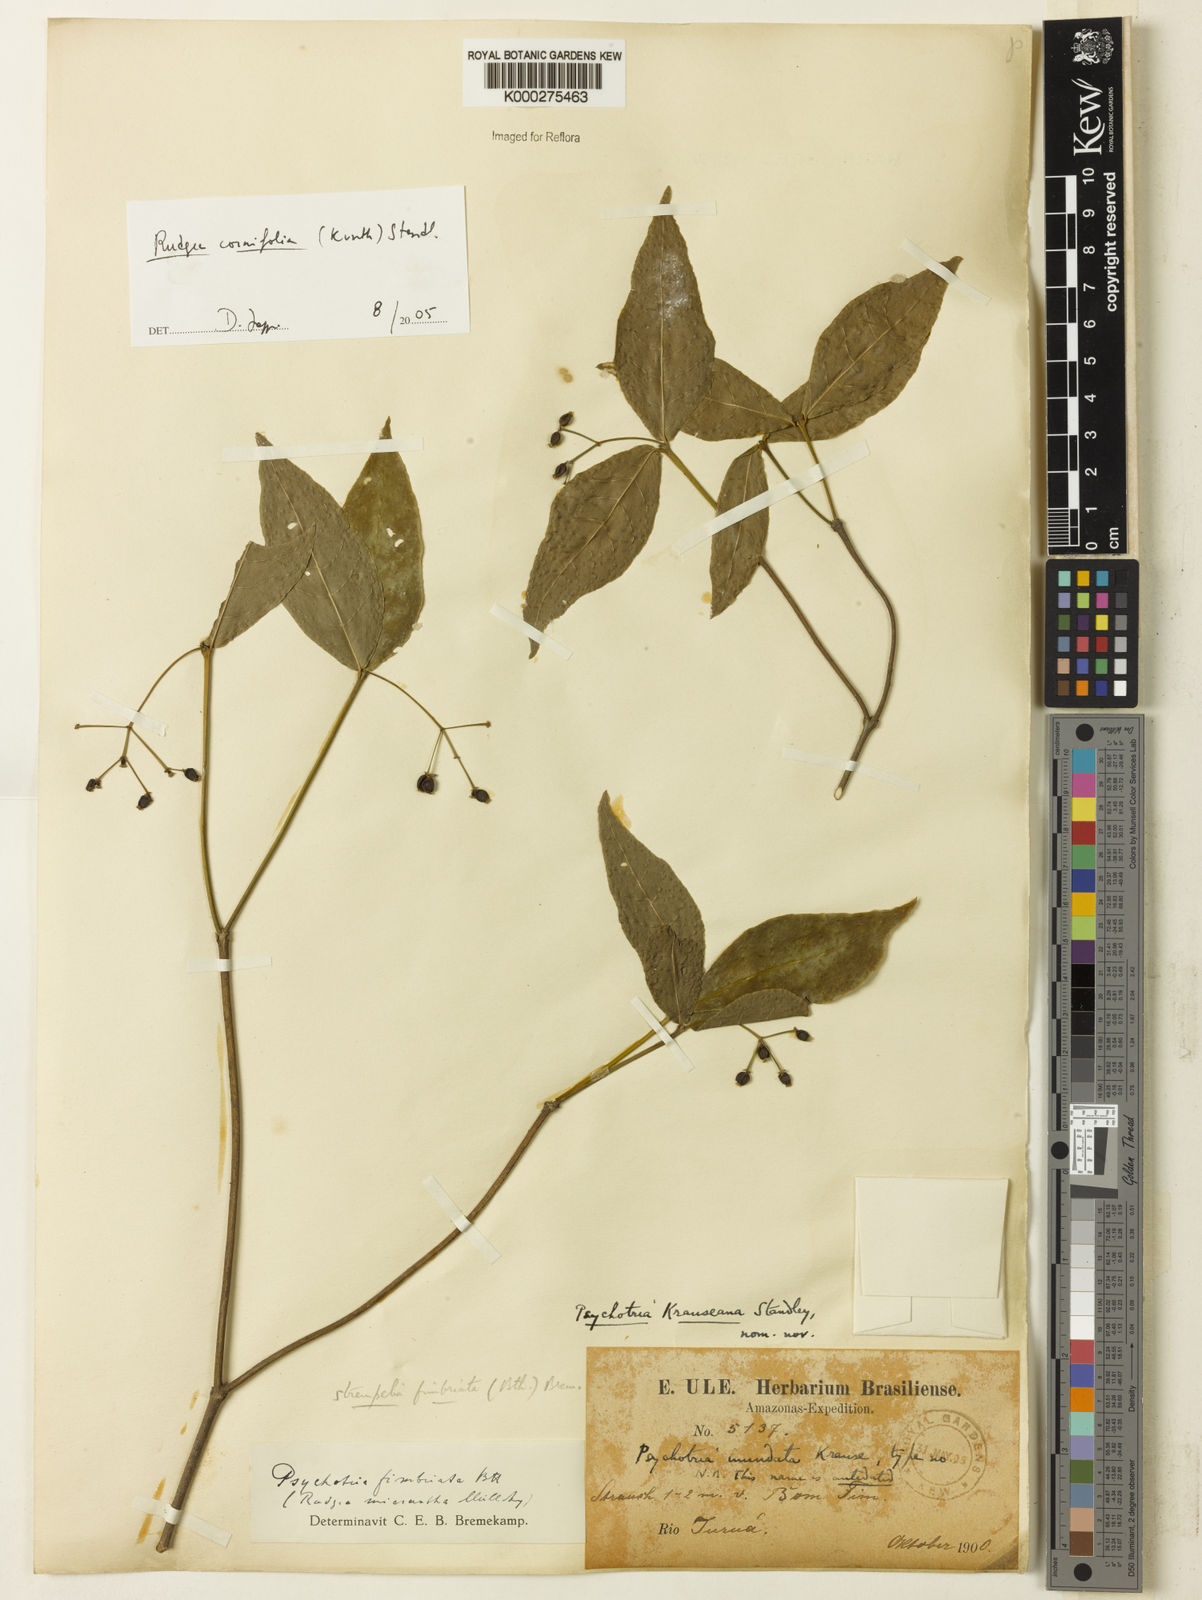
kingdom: Plantae
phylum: Tracheophyta
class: Magnoliopsida
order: Gentianales
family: Rubiaceae
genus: Rudgea
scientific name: Rudgea cornifolia
